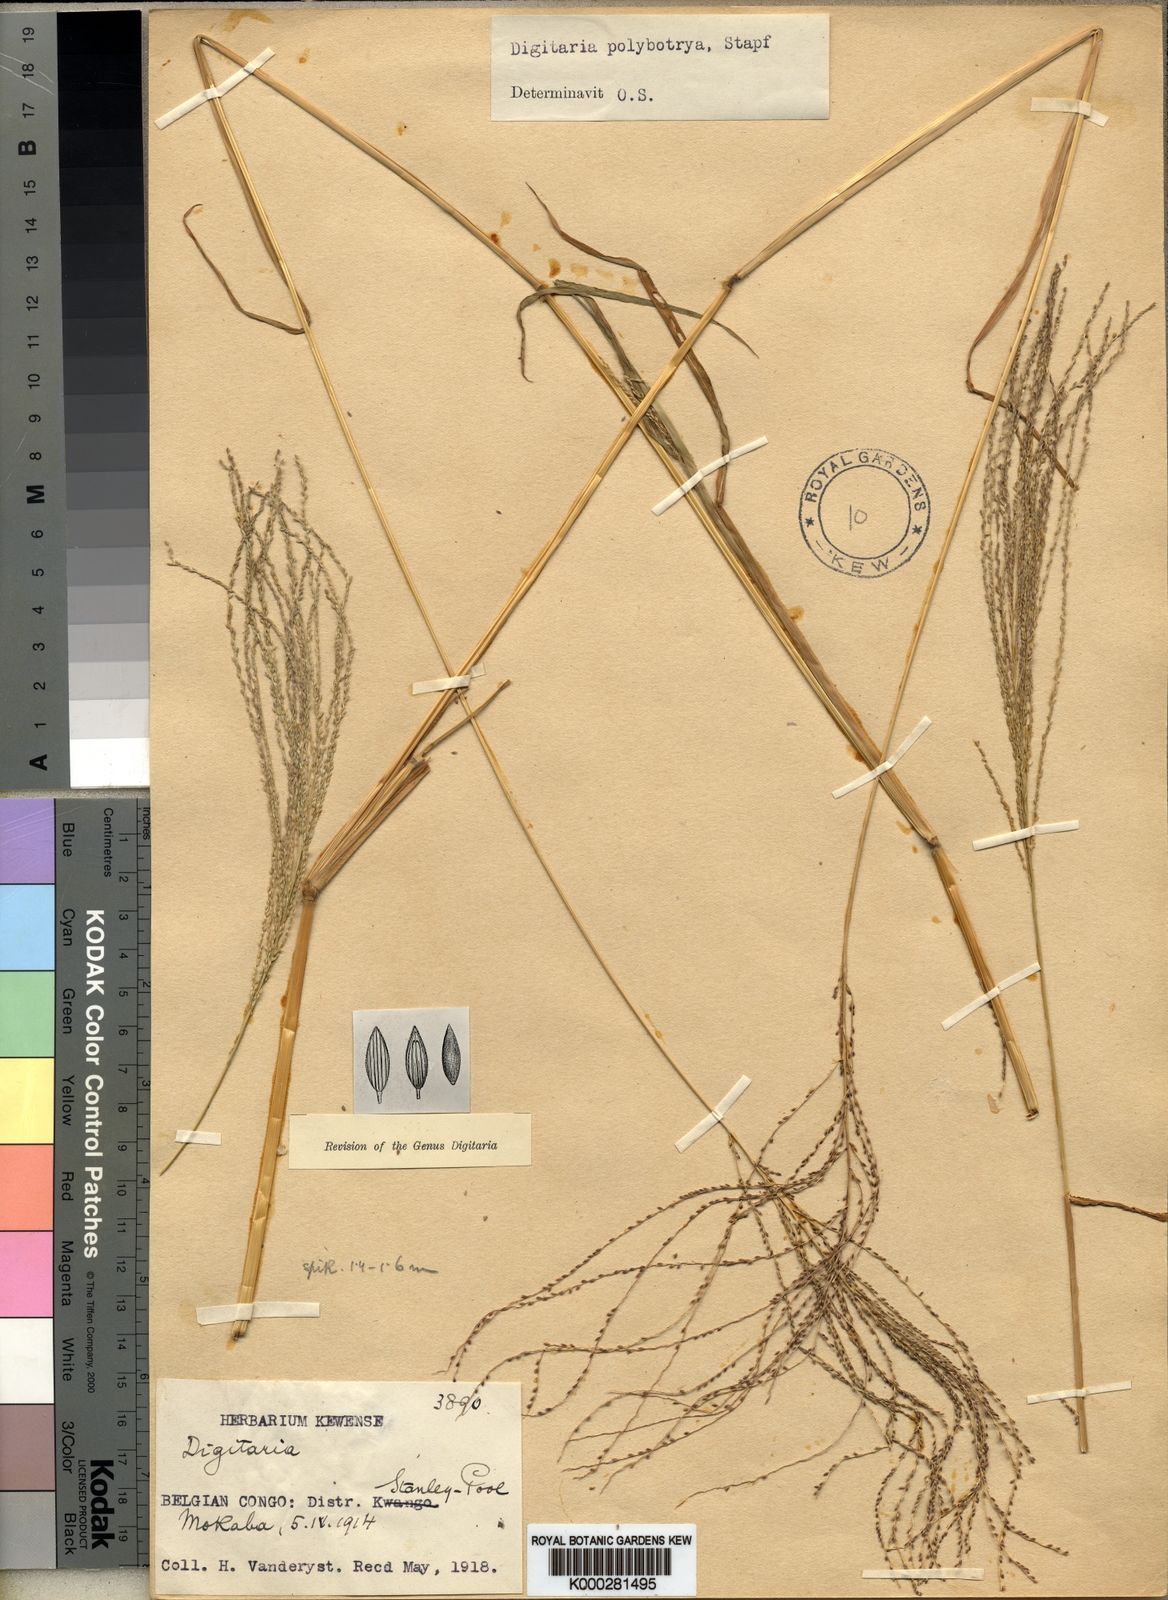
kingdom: Plantae
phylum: Tracheophyta
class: Liliopsida
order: Poales
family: Poaceae
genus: Digitaria
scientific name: Digitaria leptorhachis
